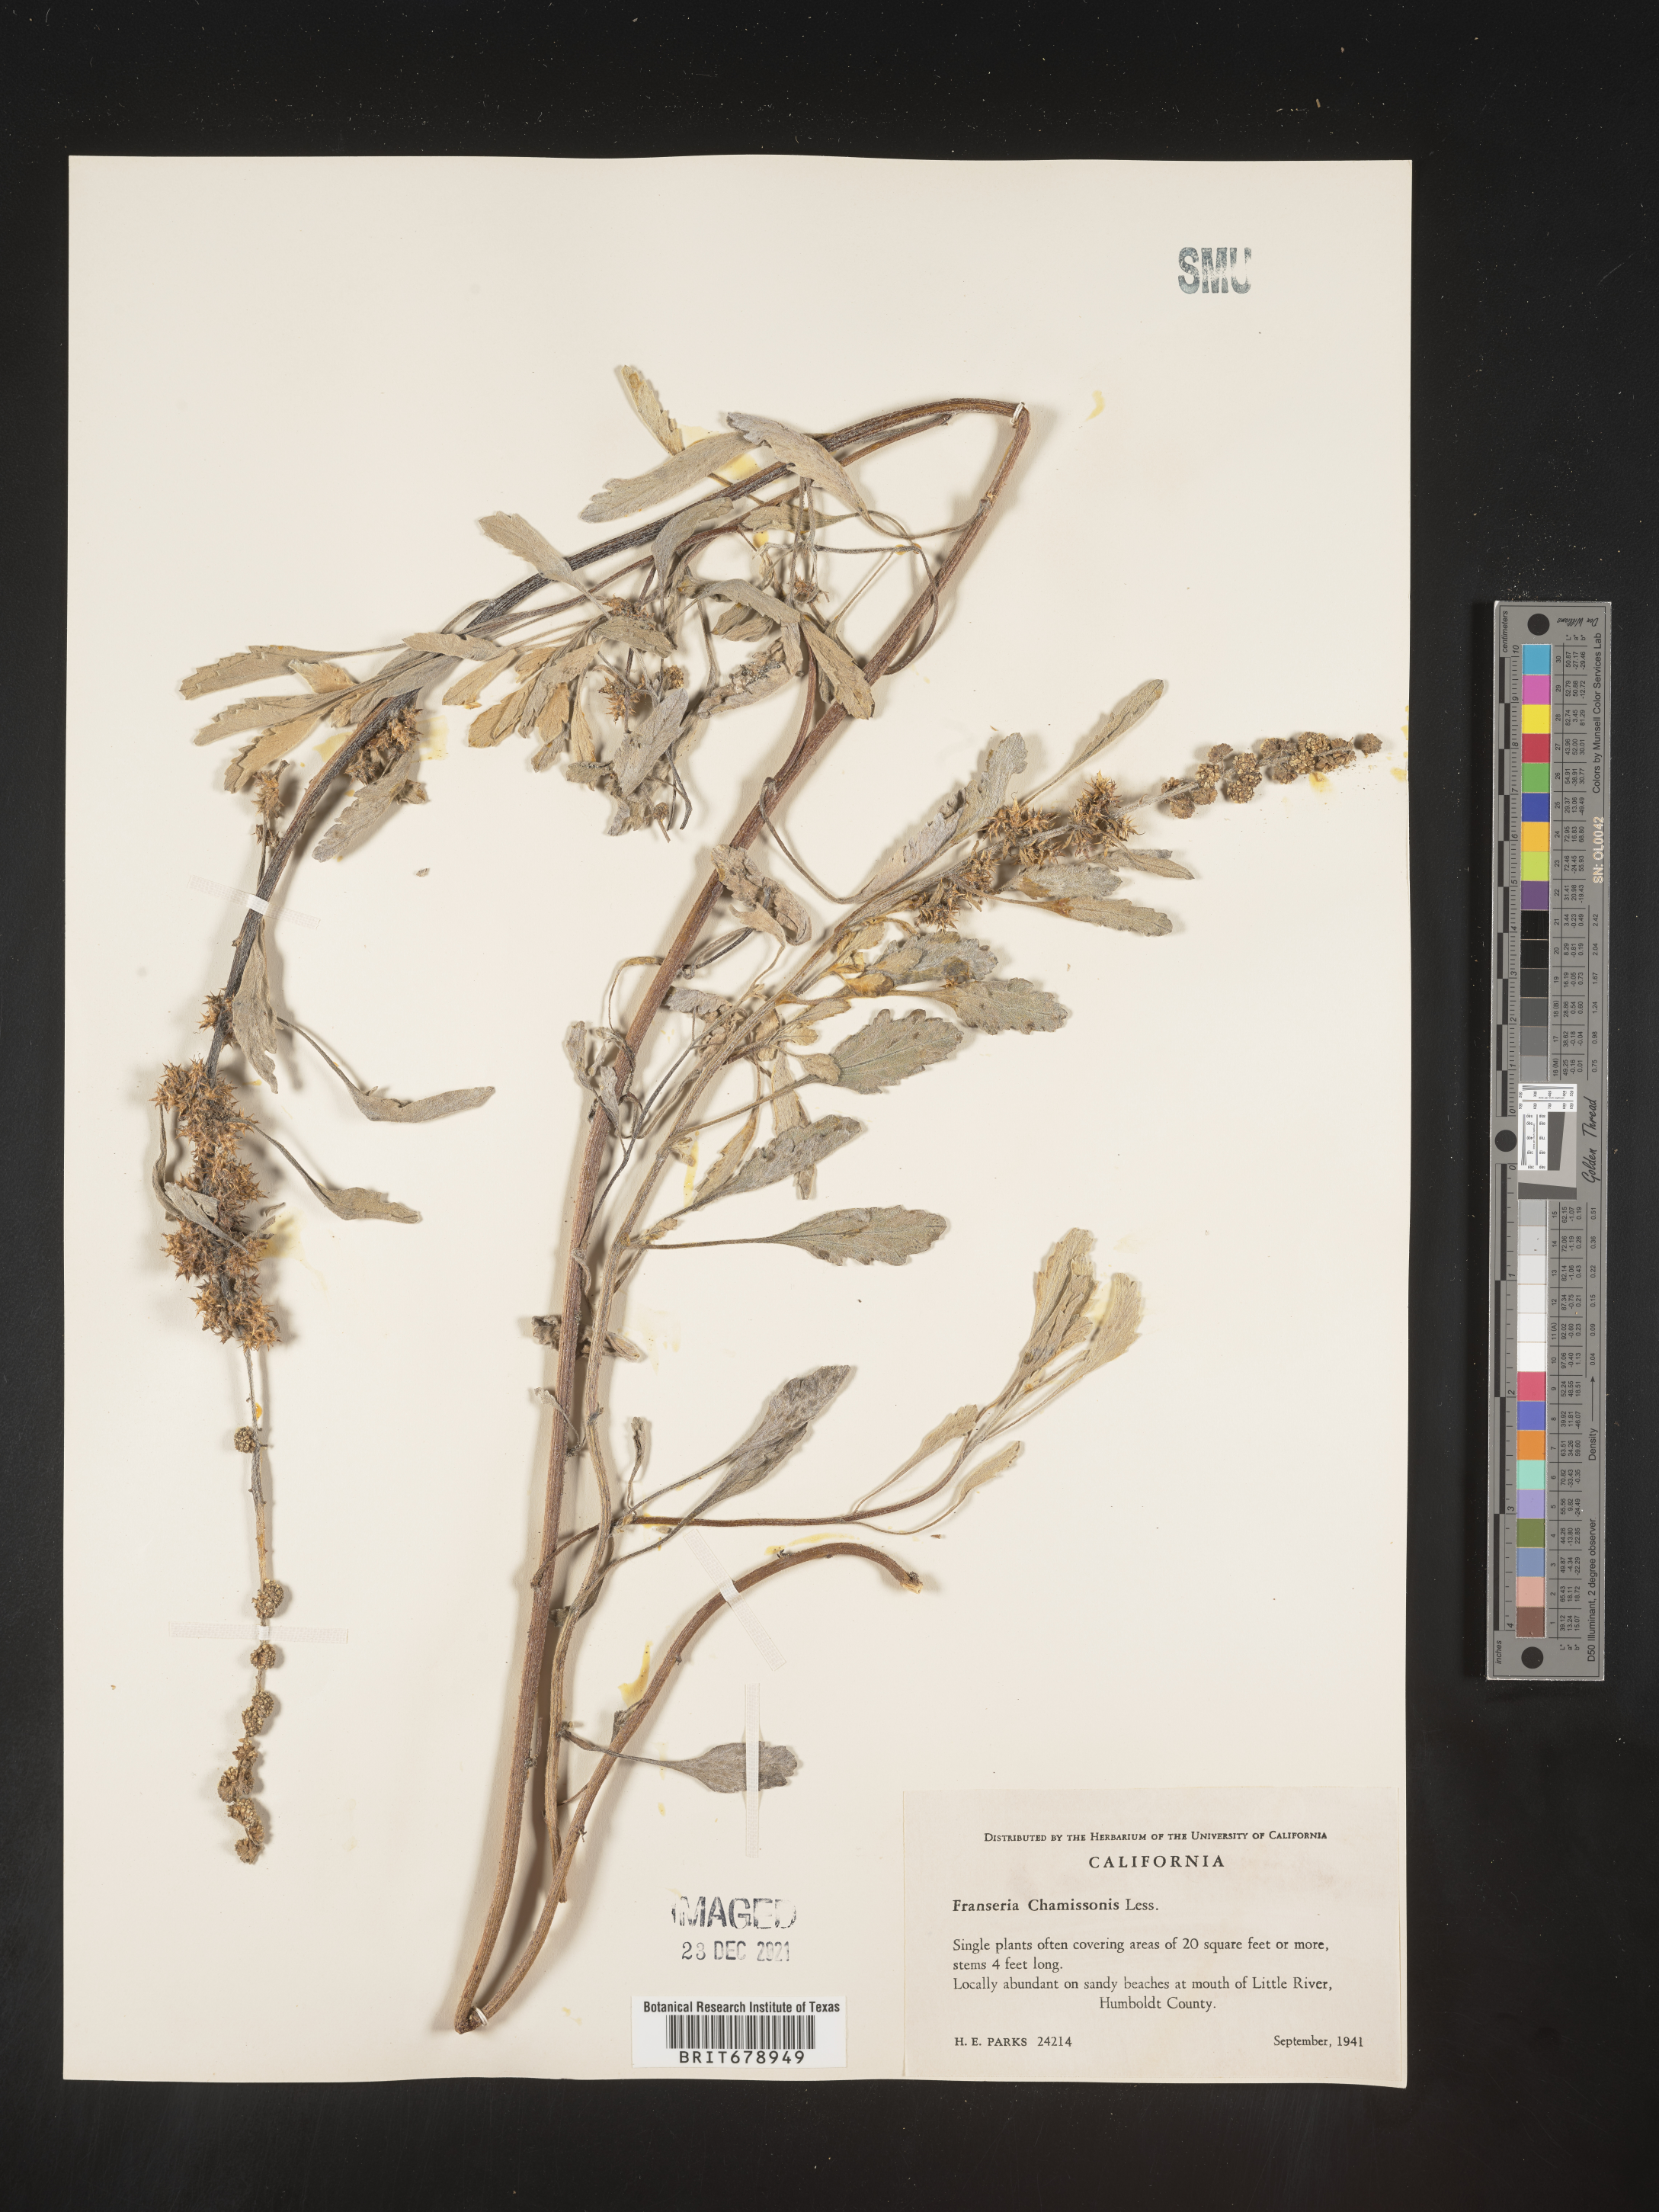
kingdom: Plantae
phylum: Tracheophyta
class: Magnoliopsida
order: Asterales
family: Asteraceae
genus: Ambrosia
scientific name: Ambrosia chamissonis
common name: Beachbur
